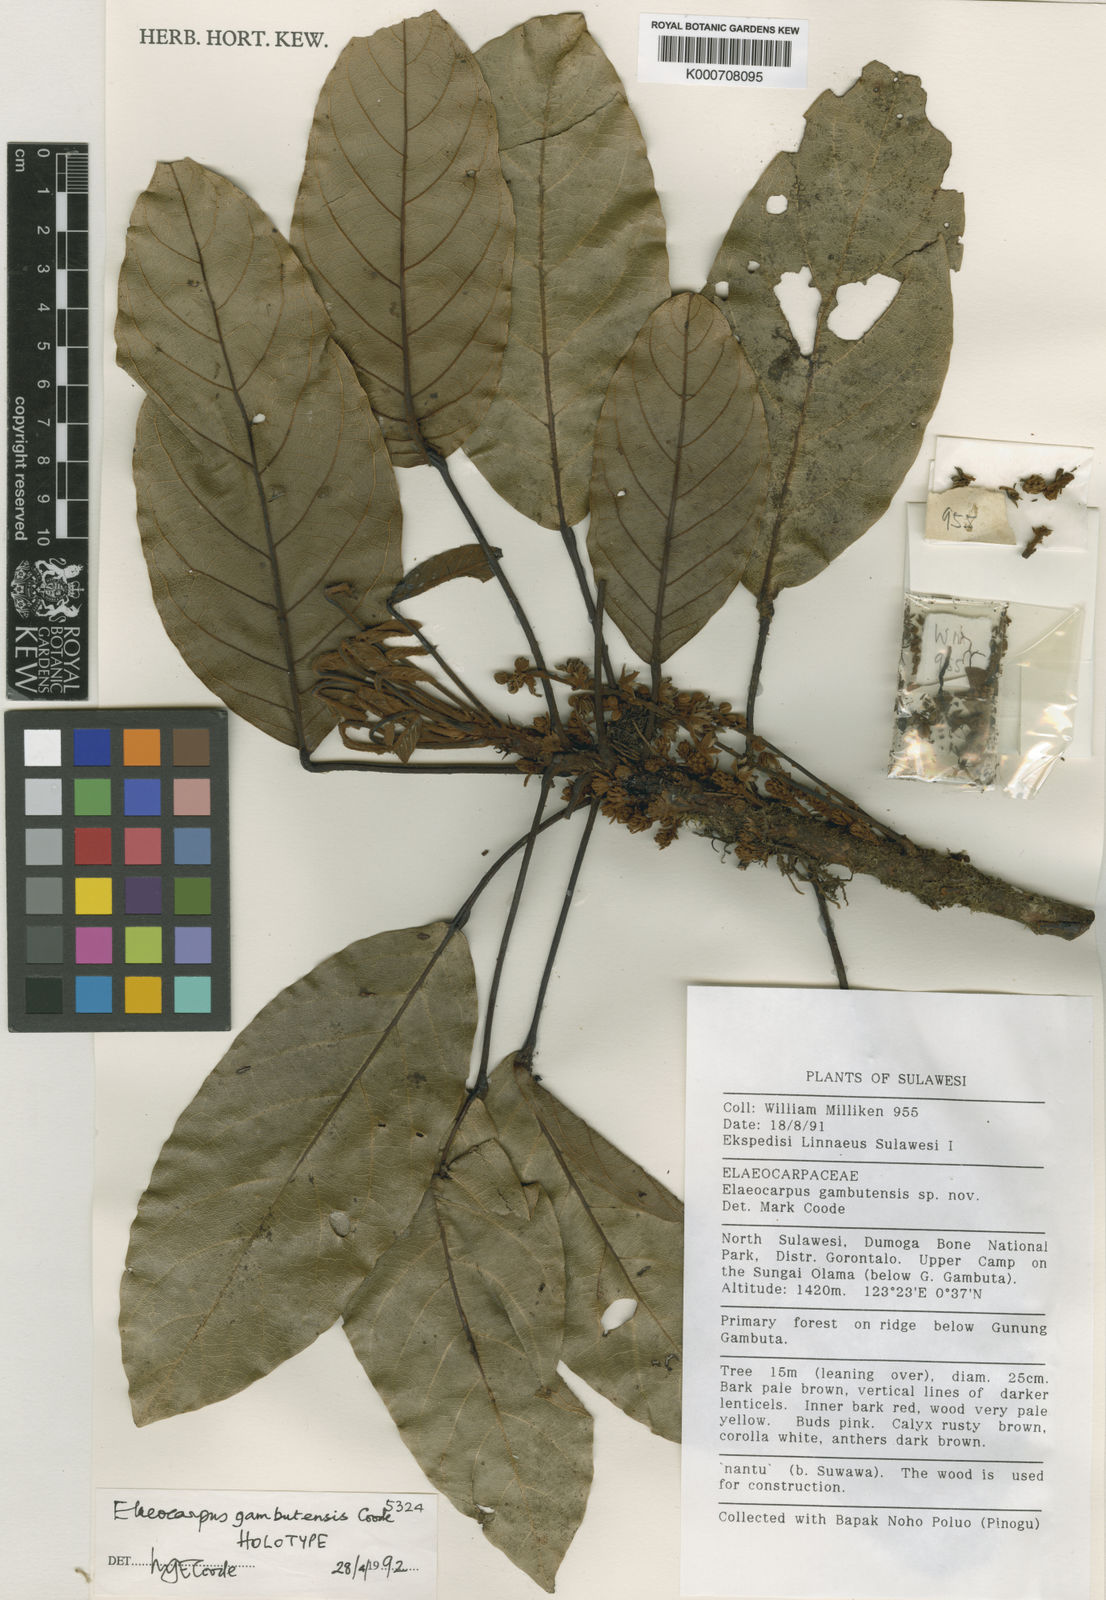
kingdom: Plantae
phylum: Tracheophyta
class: Magnoliopsida
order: Oxalidales
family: Elaeocarpaceae
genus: Elaeocarpus
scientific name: Elaeocarpus gambutanus
